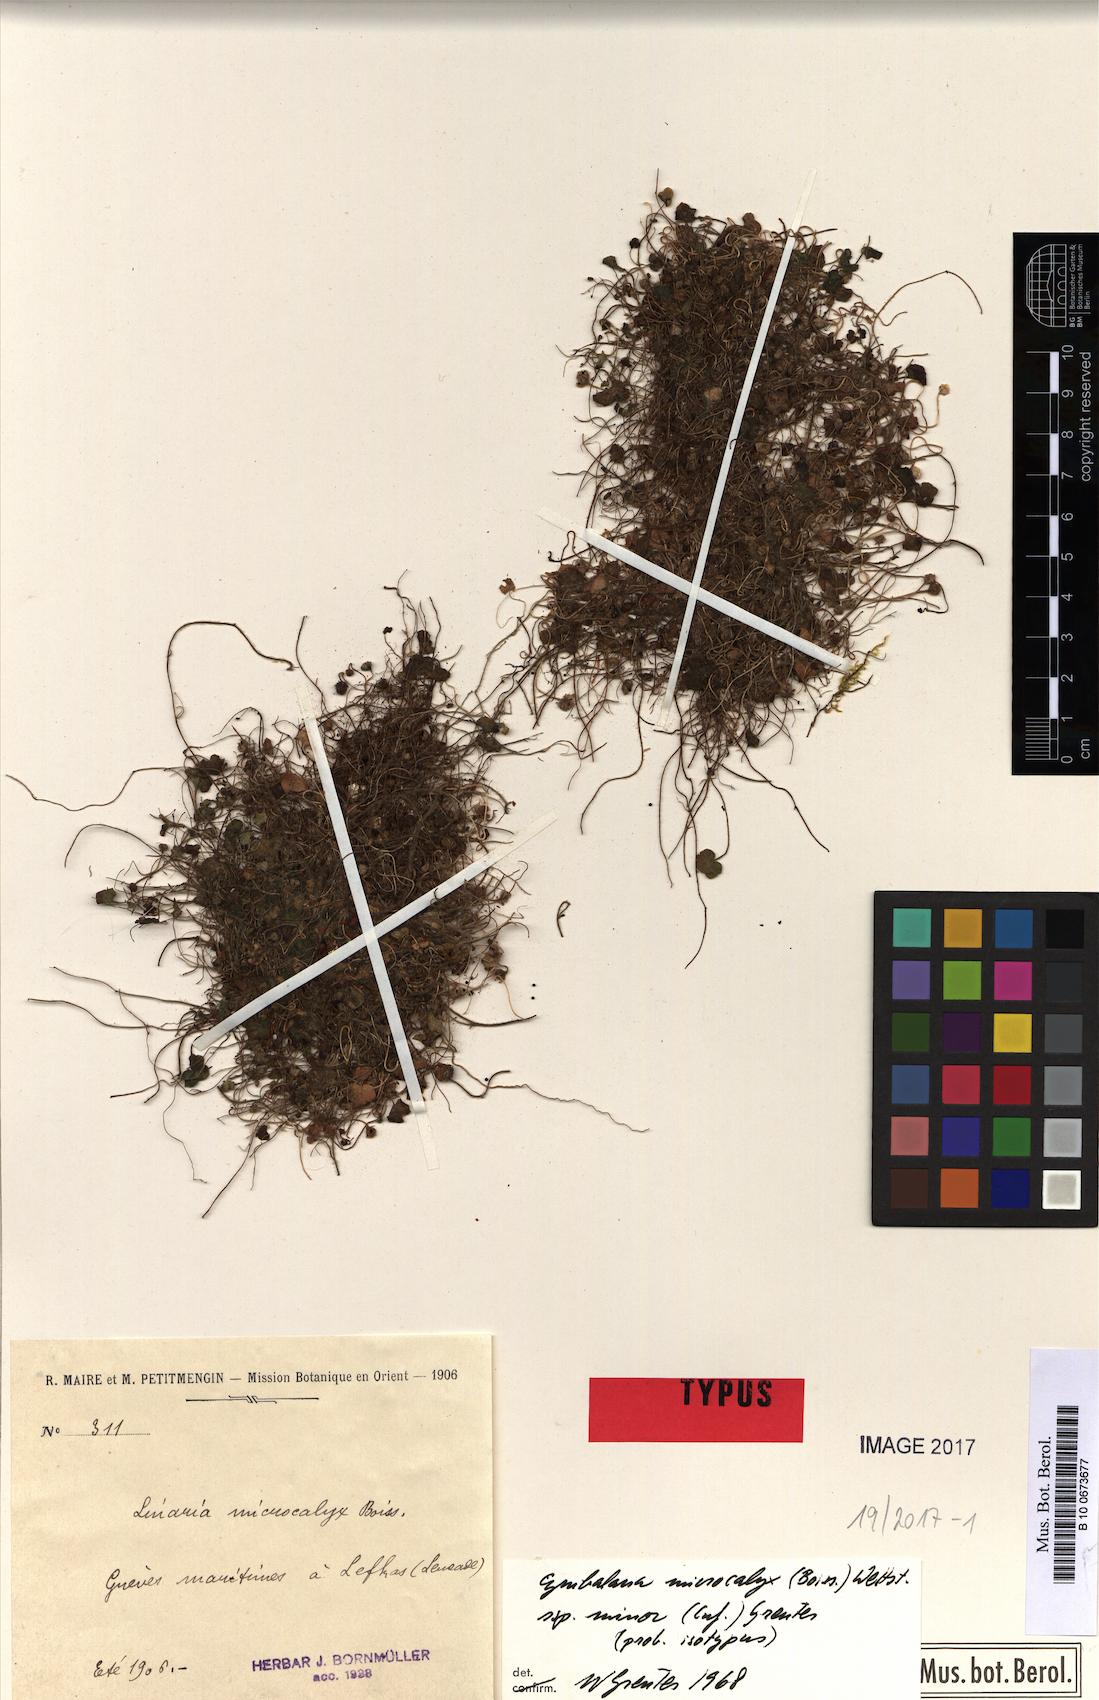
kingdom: Plantae
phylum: Tracheophyta
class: Magnoliopsida
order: Lamiales
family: Plantaginaceae
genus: Cymbalaria
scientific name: Cymbalaria minor
